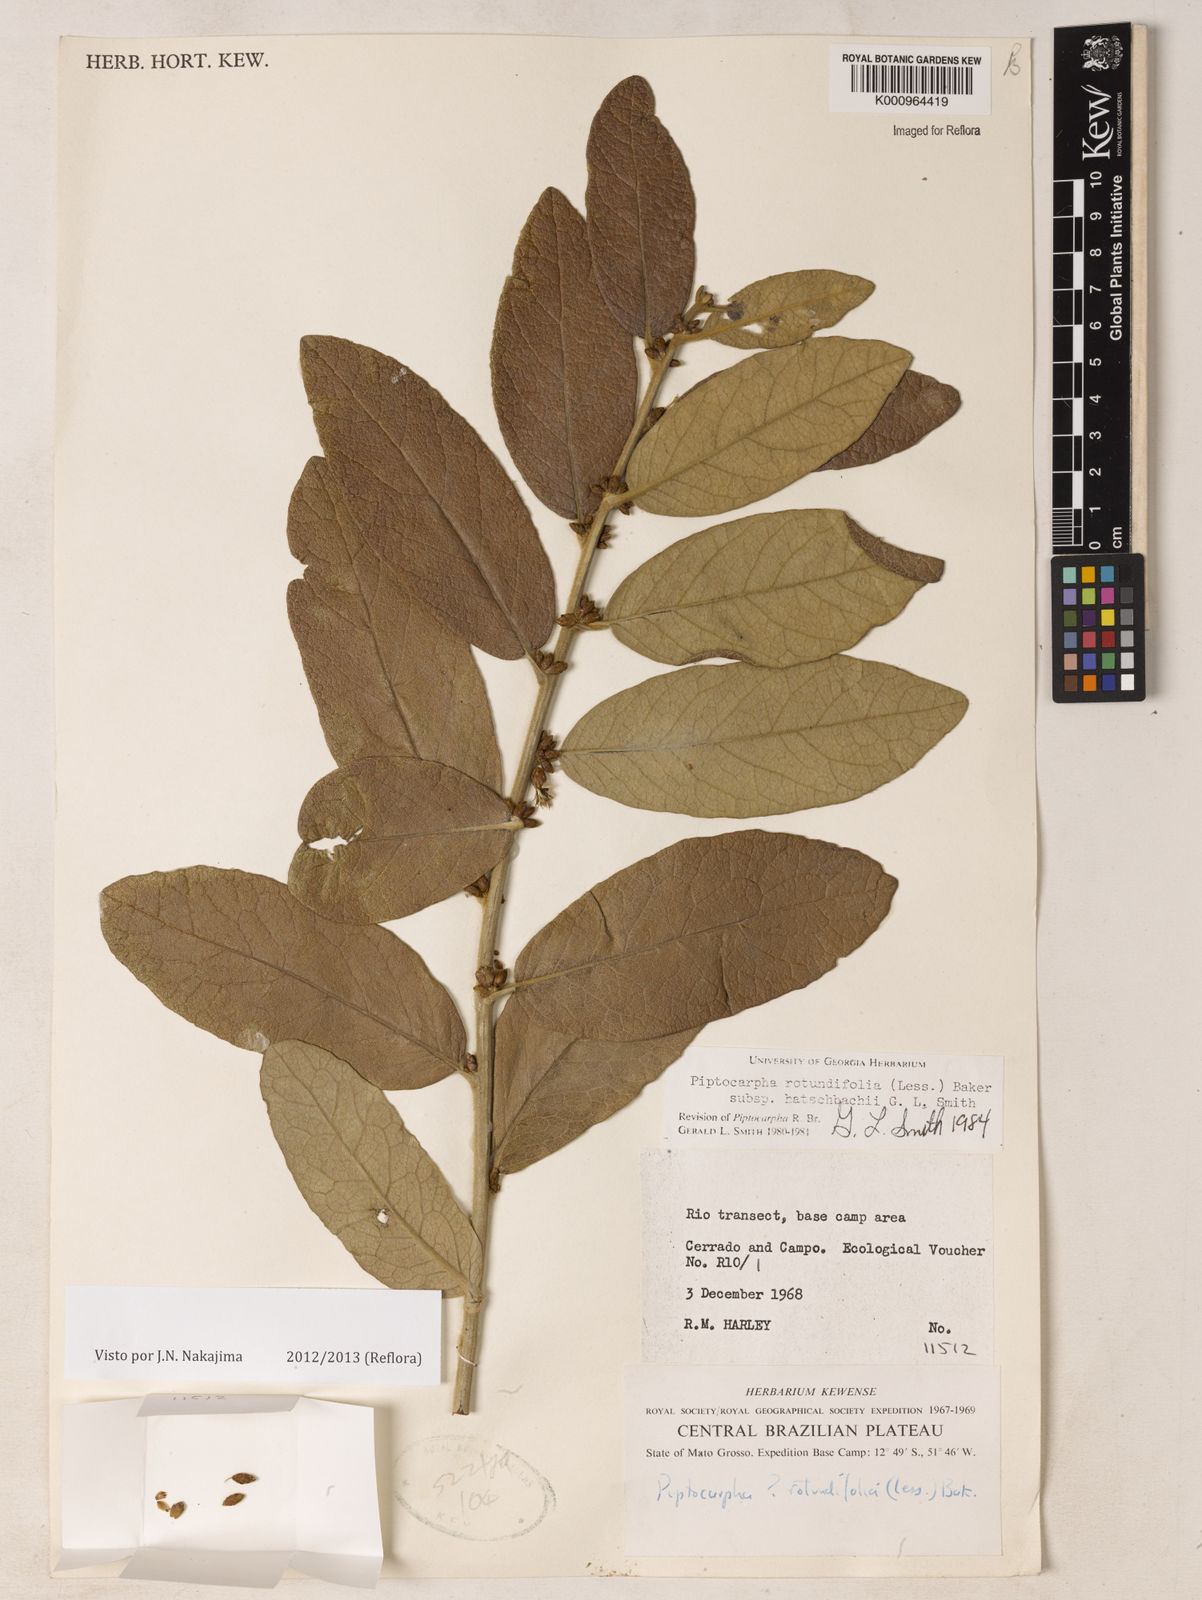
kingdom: Plantae
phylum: Tracheophyta
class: Magnoliopsida
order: Asterales
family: Asteraceae
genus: Piptocarpha
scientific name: Piptocarpha rotundifolia
